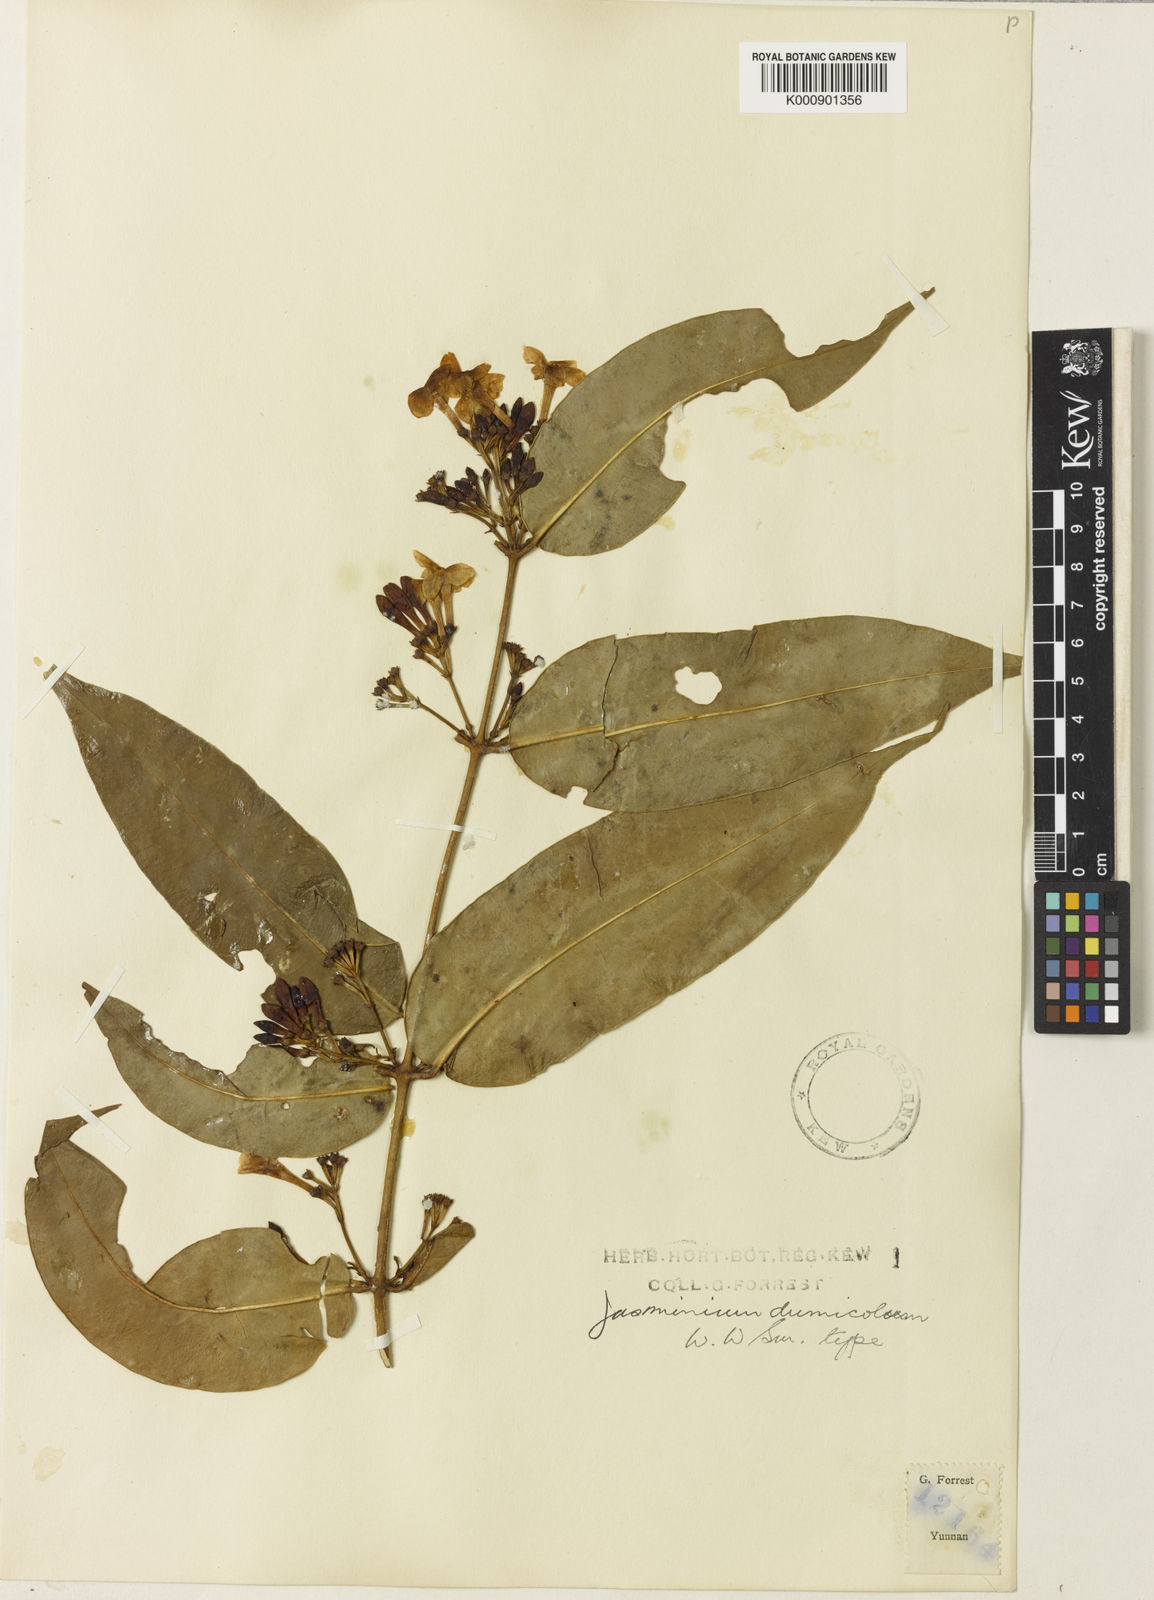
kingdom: Plantae
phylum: Tracheophyta
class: Magnoliopsida
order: Lamiales
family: Oleaceae
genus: Jasminum
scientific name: Jasminum duclouxii
